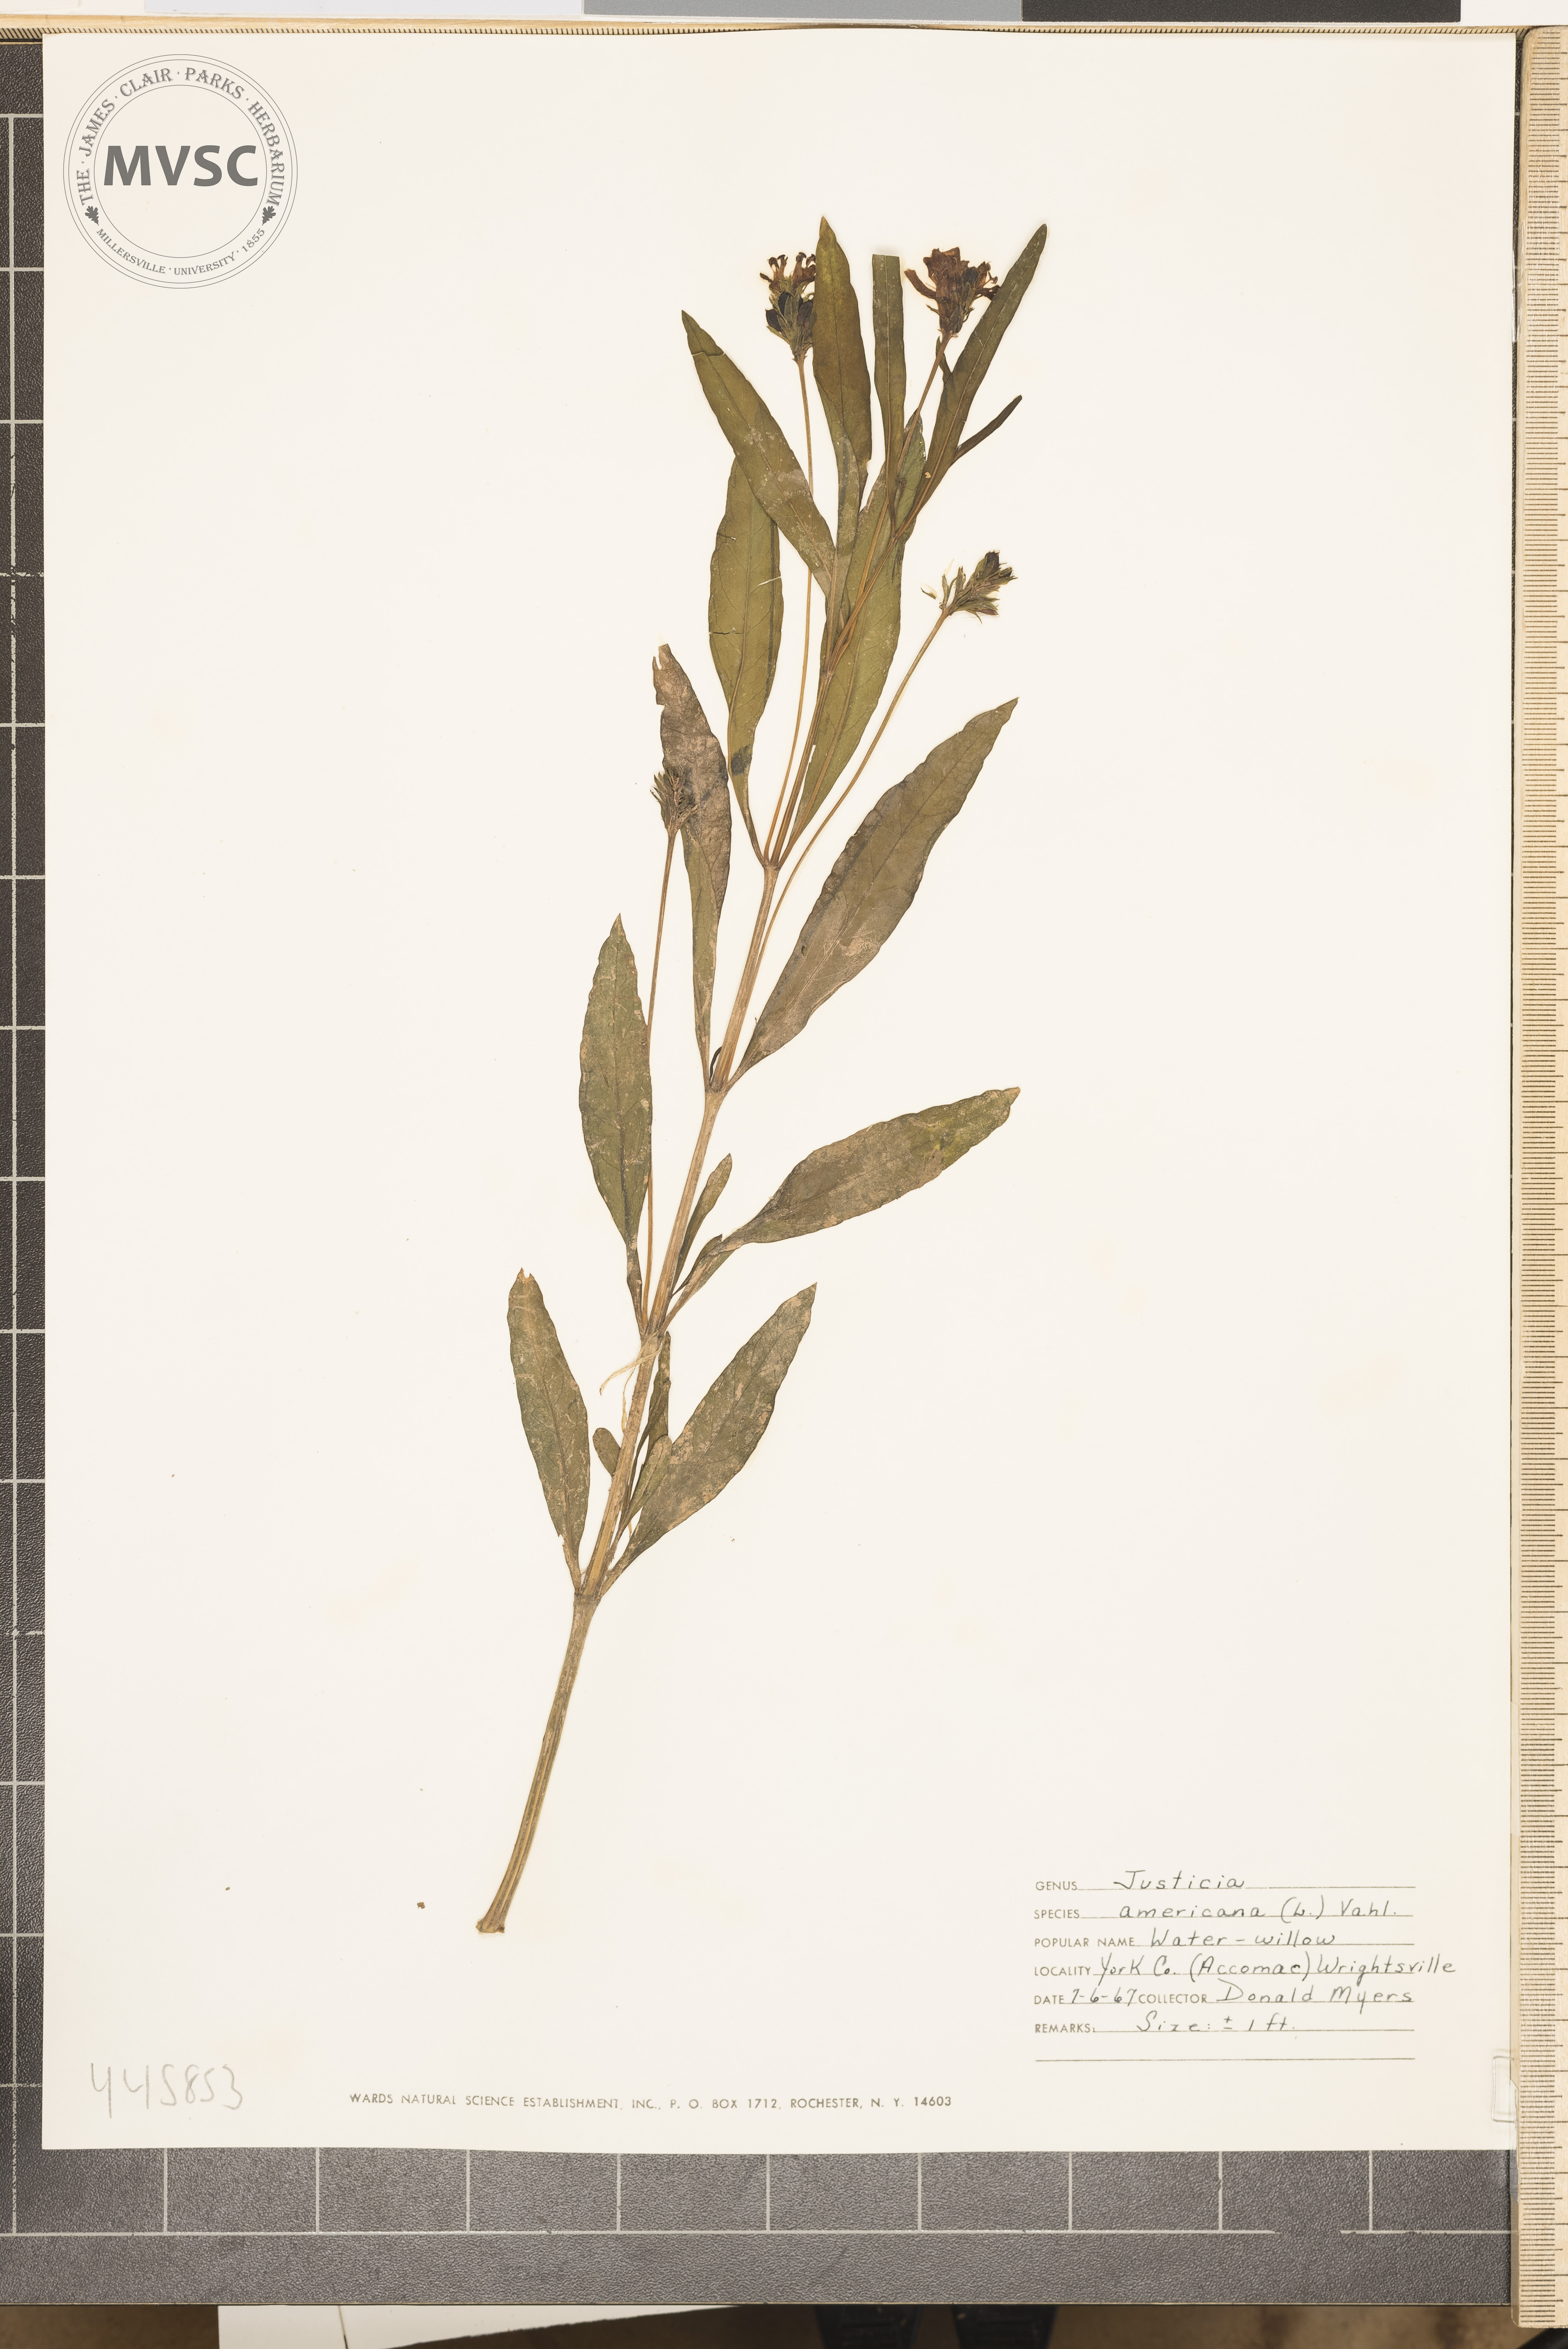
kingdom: Plantae
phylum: Tracheophyta
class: Magnoliopsida
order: Lamiales
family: Acanthaceae
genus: Dianthera
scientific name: Dianthera americana
